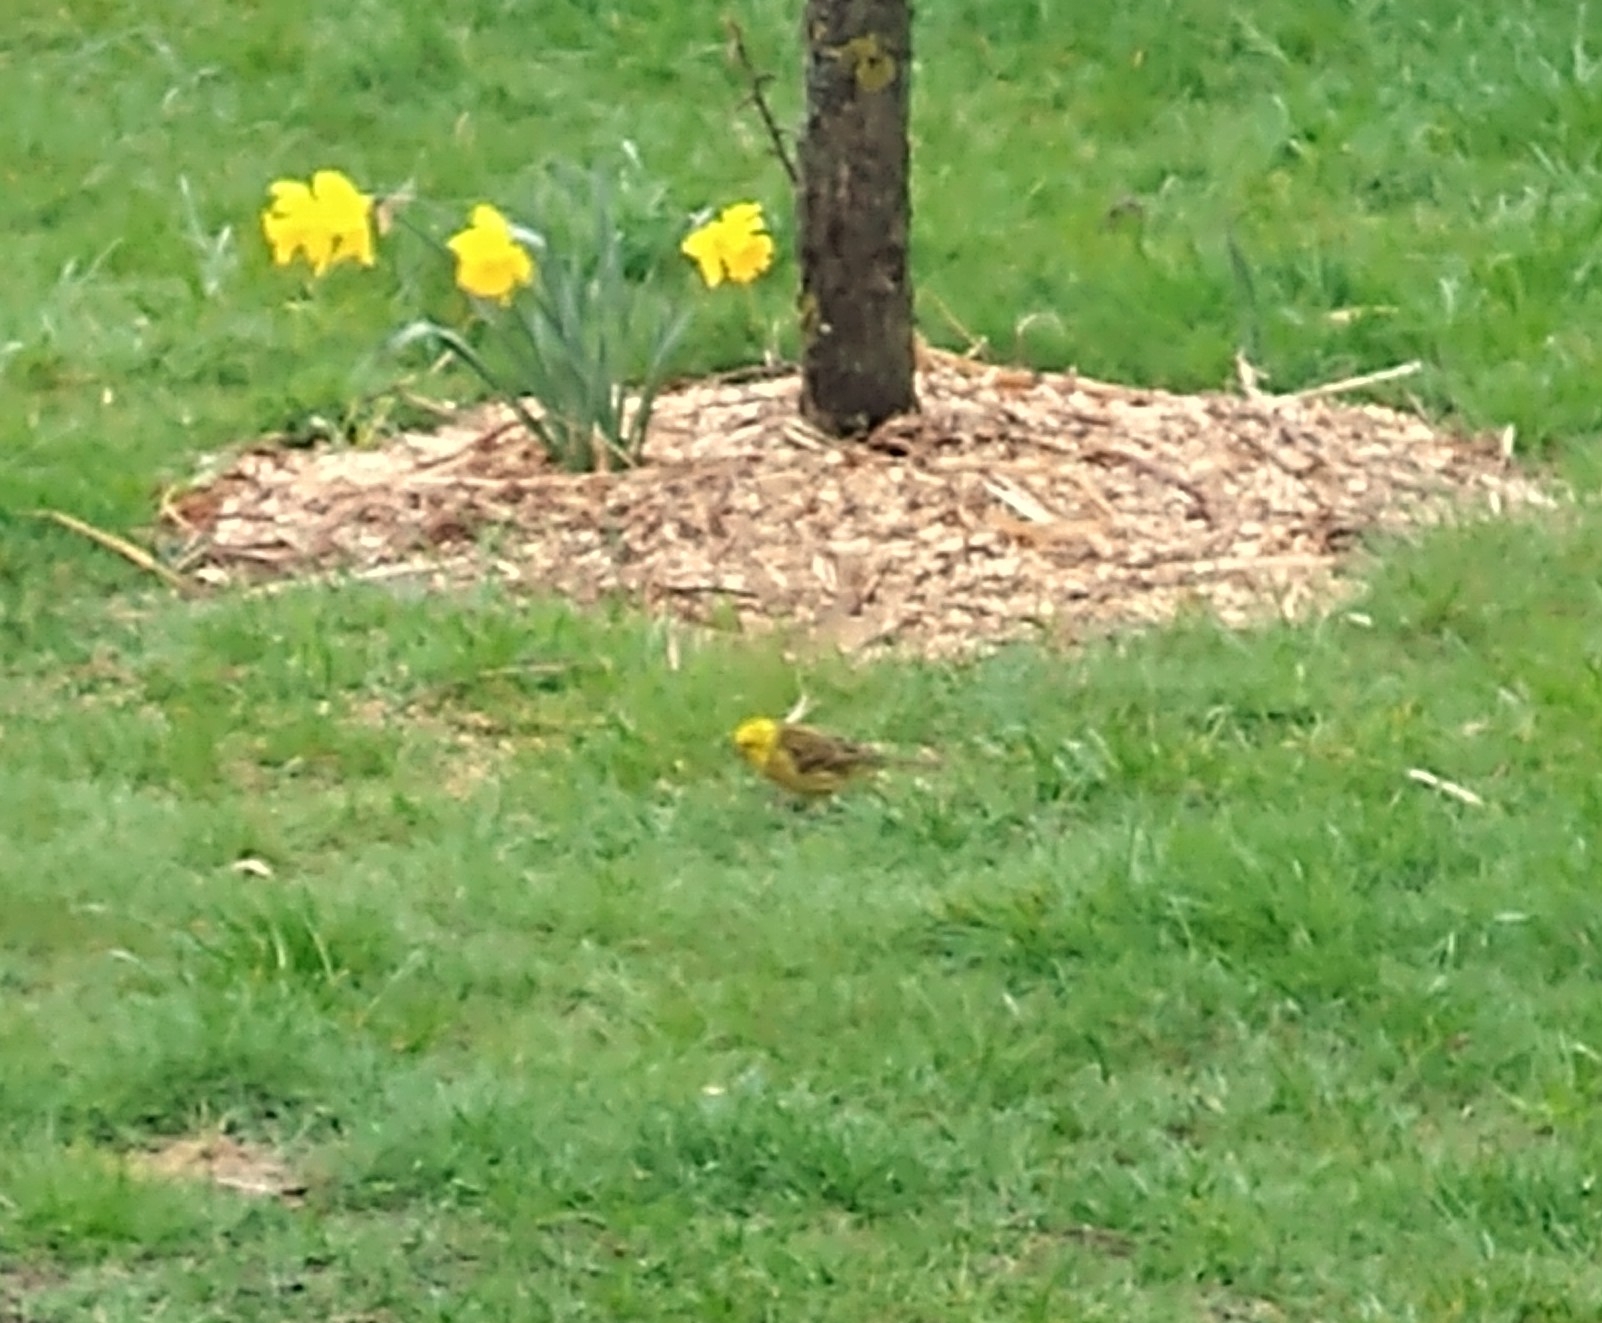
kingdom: Animalia
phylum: Chordata
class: Aves
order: Passeriformes
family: Emberizidae
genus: Emberiza
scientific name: Emberiza citrinella
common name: Gulspurv
